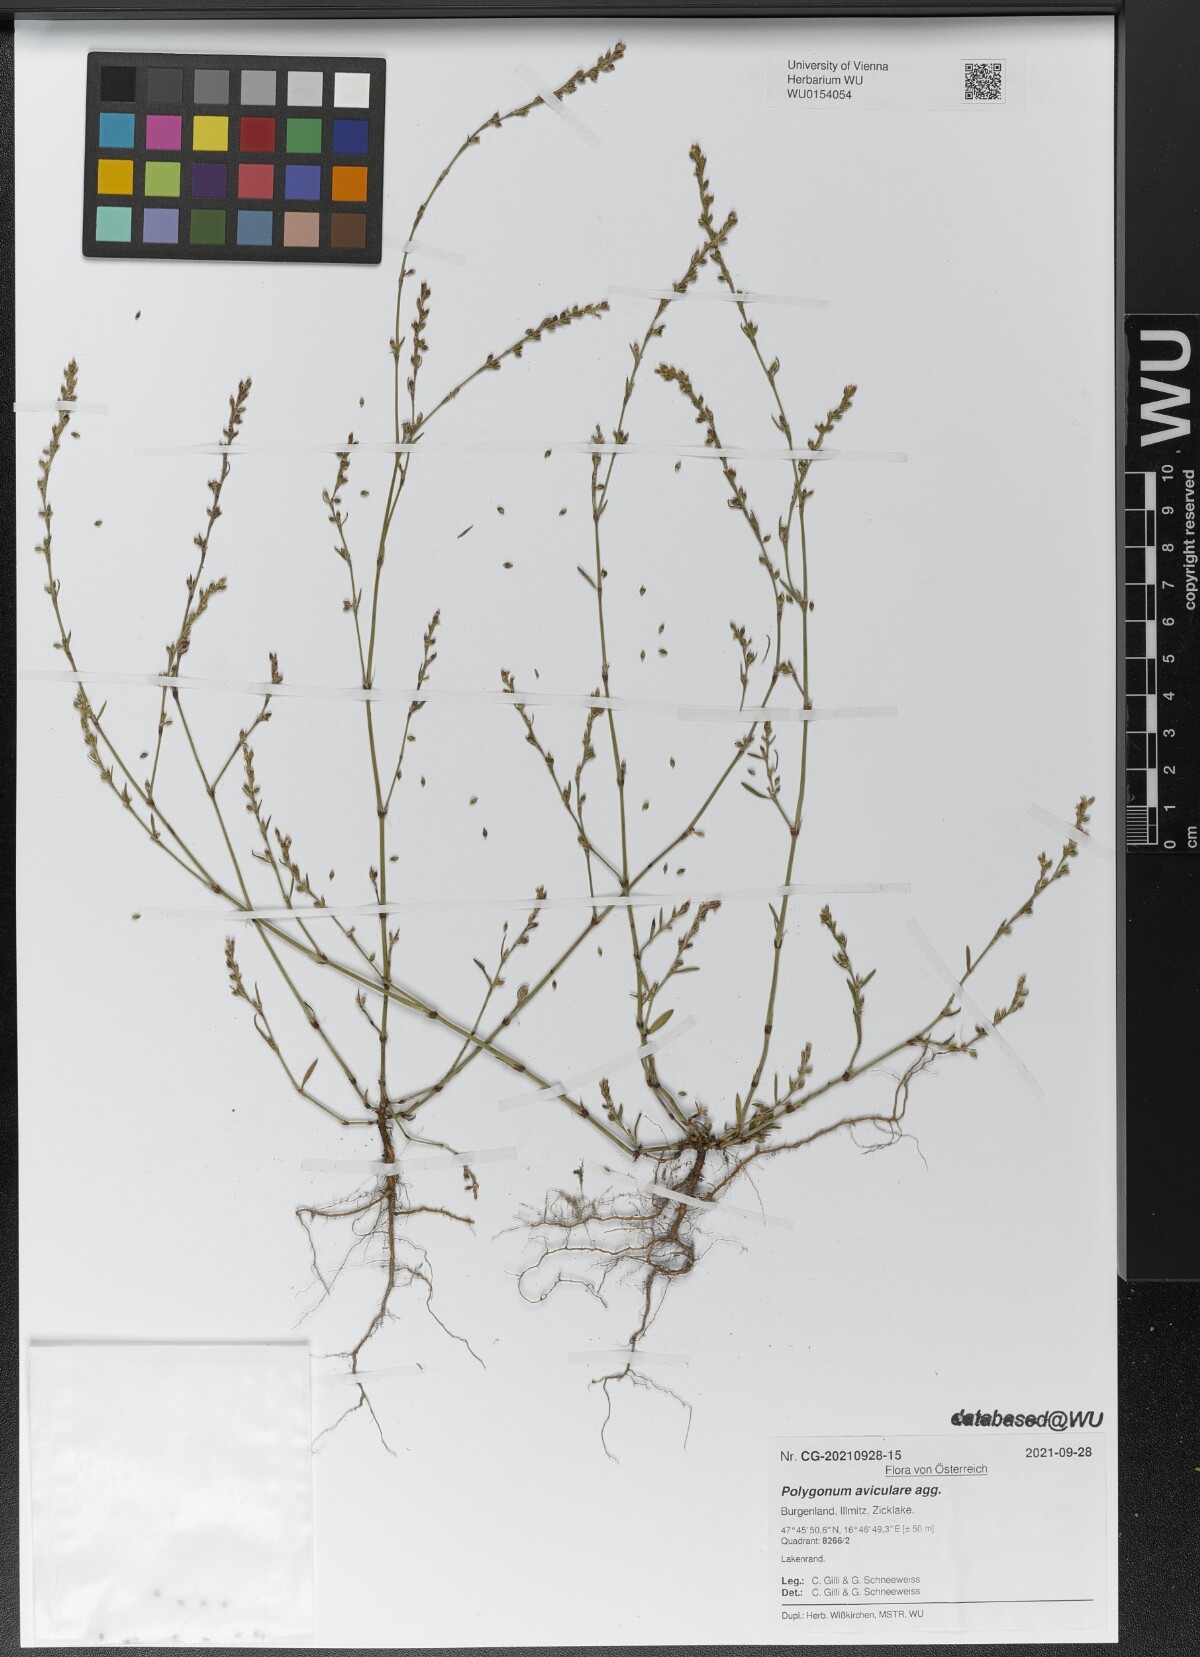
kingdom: Plantae
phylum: Tracheophyta
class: Magnoliopsida
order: Caryophyllales
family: Polygonaceae
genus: Polygonum
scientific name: Polygonum aviculare
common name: Prostrate knotweed
